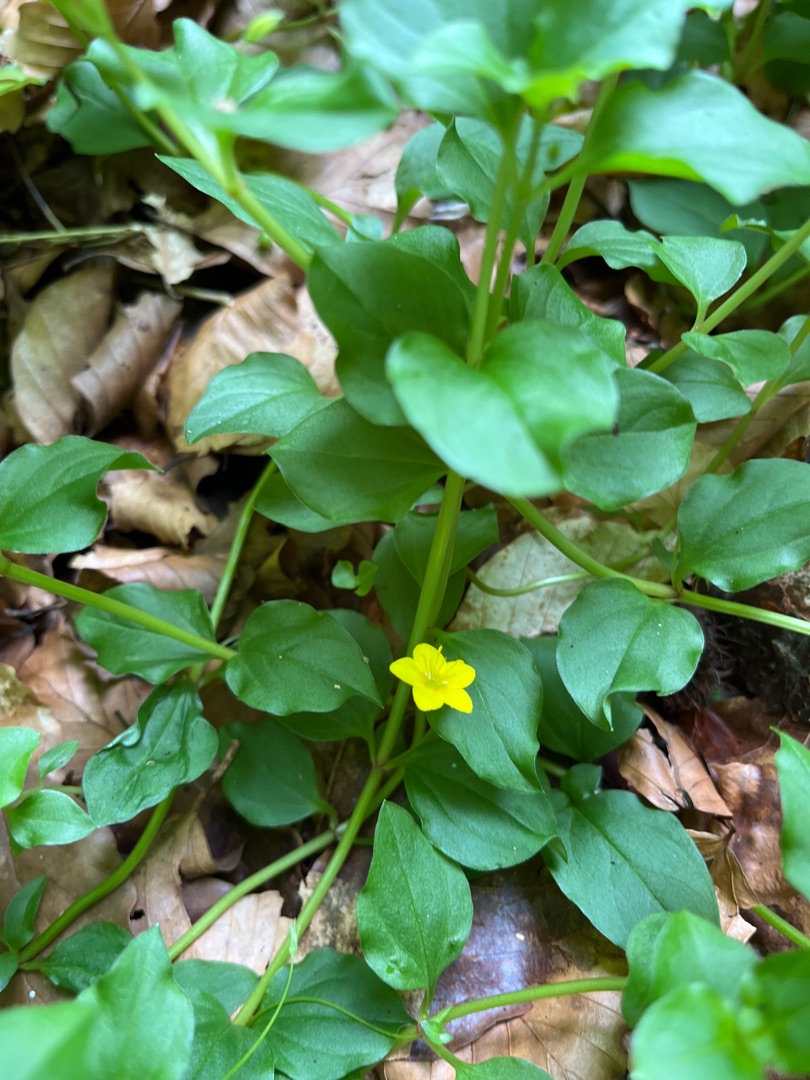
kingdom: Plantae
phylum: Tracheophyta
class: Magnoliopsida
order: Ericales
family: Primulaceae
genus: Lysimachia
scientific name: Lysimachia nemorum
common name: Lund-fredløs
